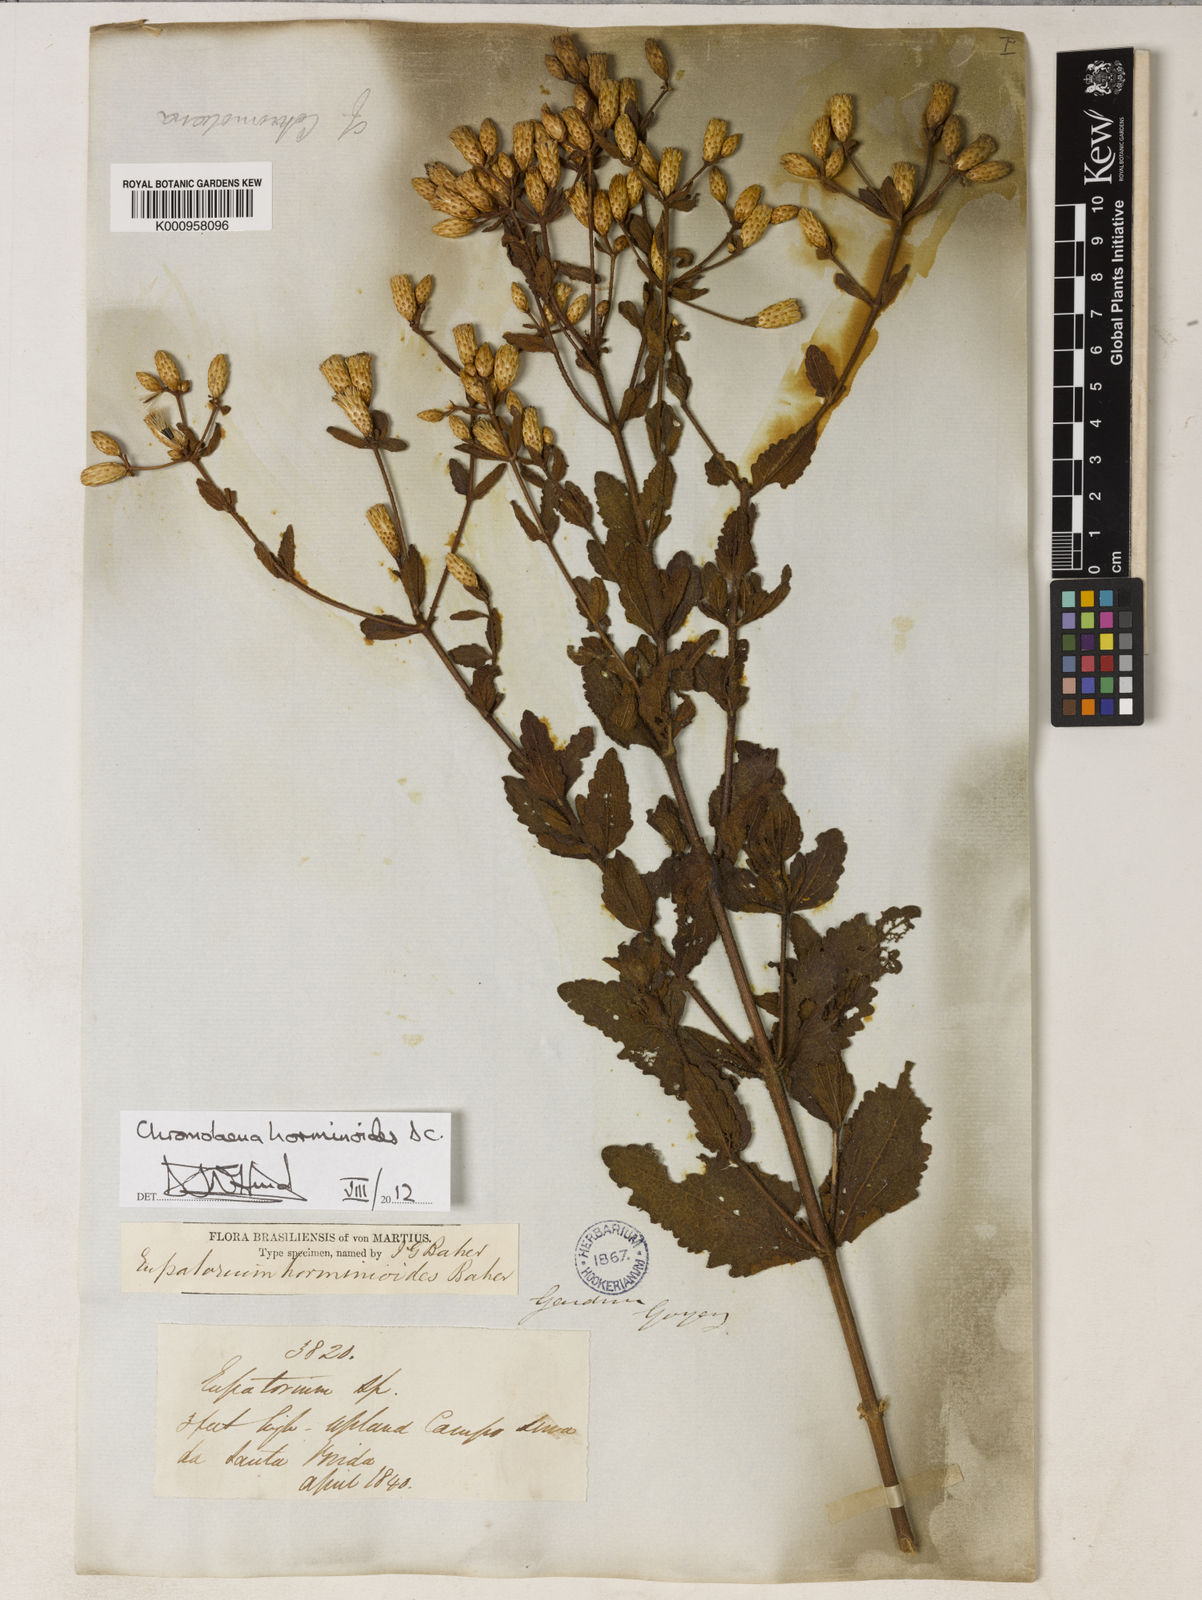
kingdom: Plantae
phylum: Tracheophyta
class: Magnoliopsida
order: Asterales
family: Asteraceae
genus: Chromolaena
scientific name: Chromolaena horminoides
